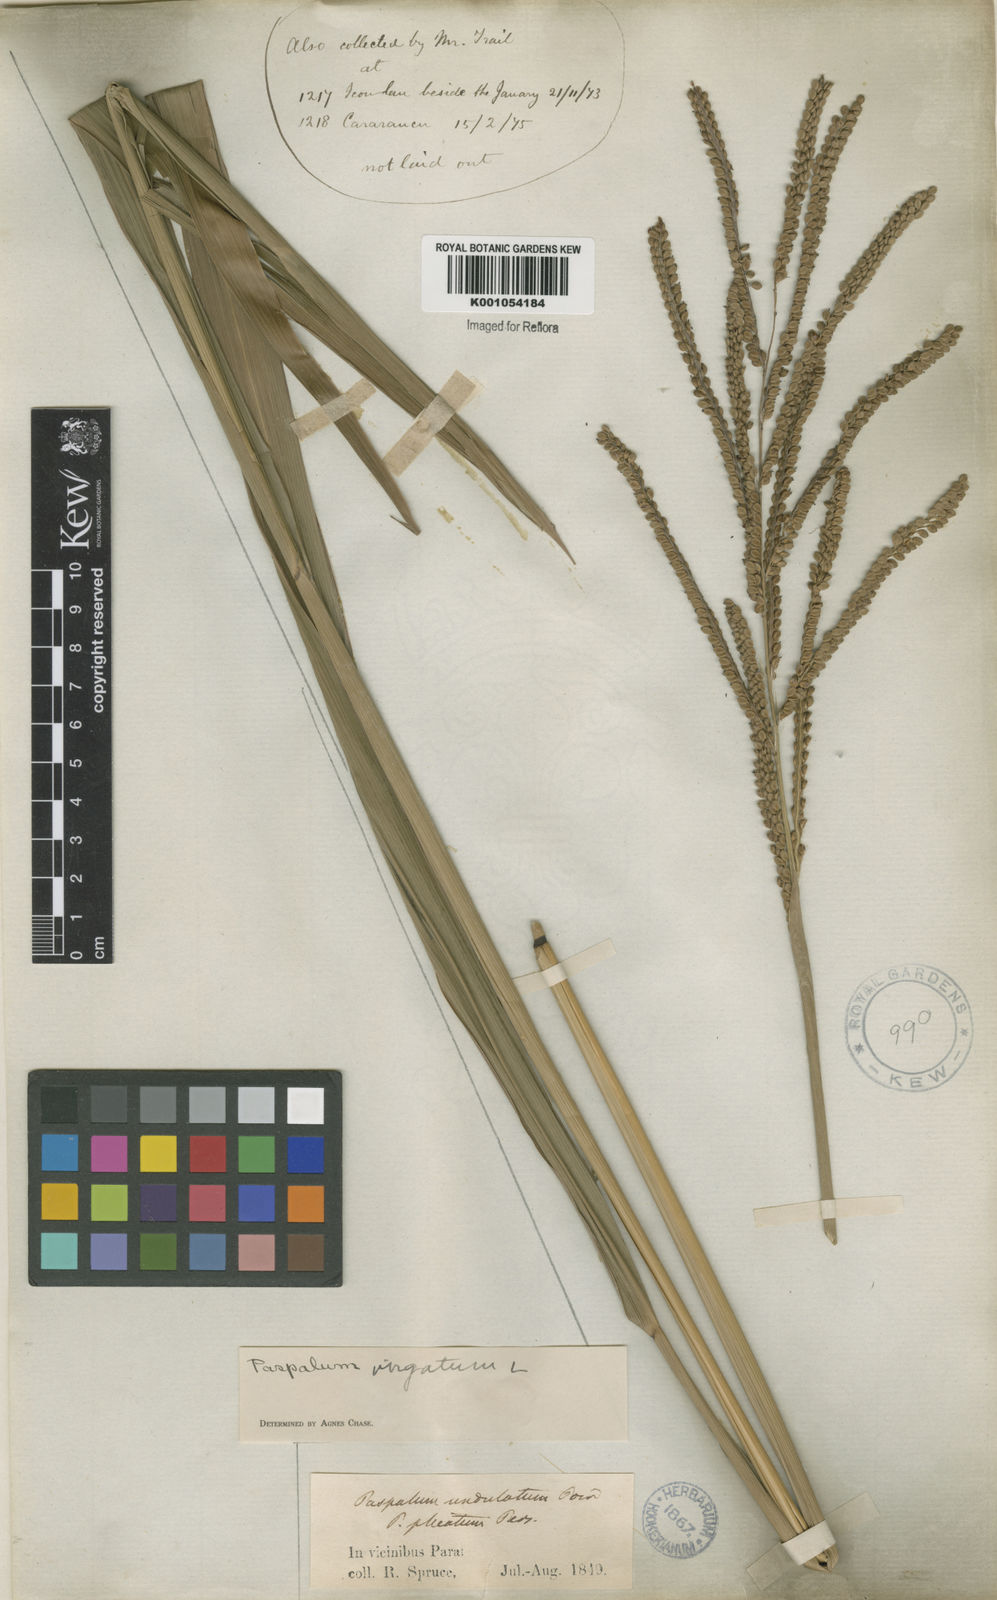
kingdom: Plantae
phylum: Tracheophyta
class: Liliopsida
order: Poales
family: Poaceae
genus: Paspalum
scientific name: Paspalum virgatum
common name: Talquezal
